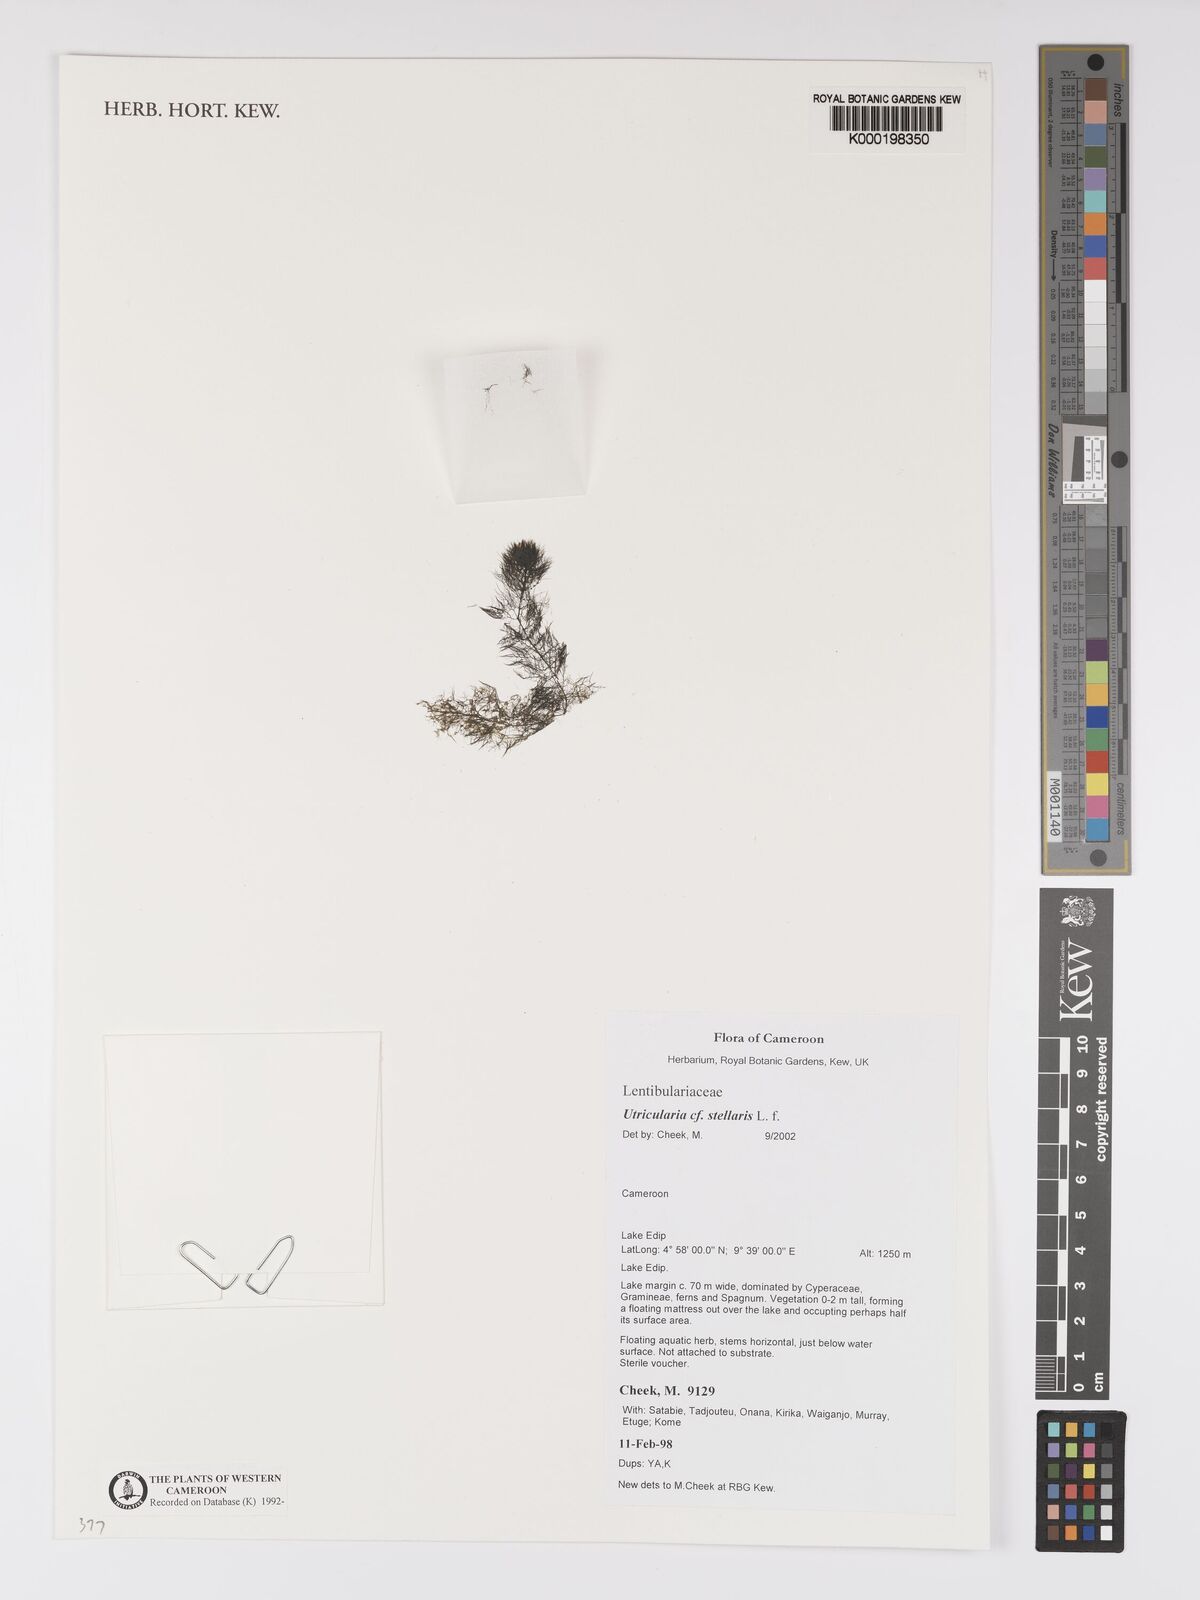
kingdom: Plantae
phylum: Tracheophyta
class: Magnoliopsida
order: Lamiales
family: Lentibulariaceae
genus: Utricularia
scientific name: Utricularia stellaris
